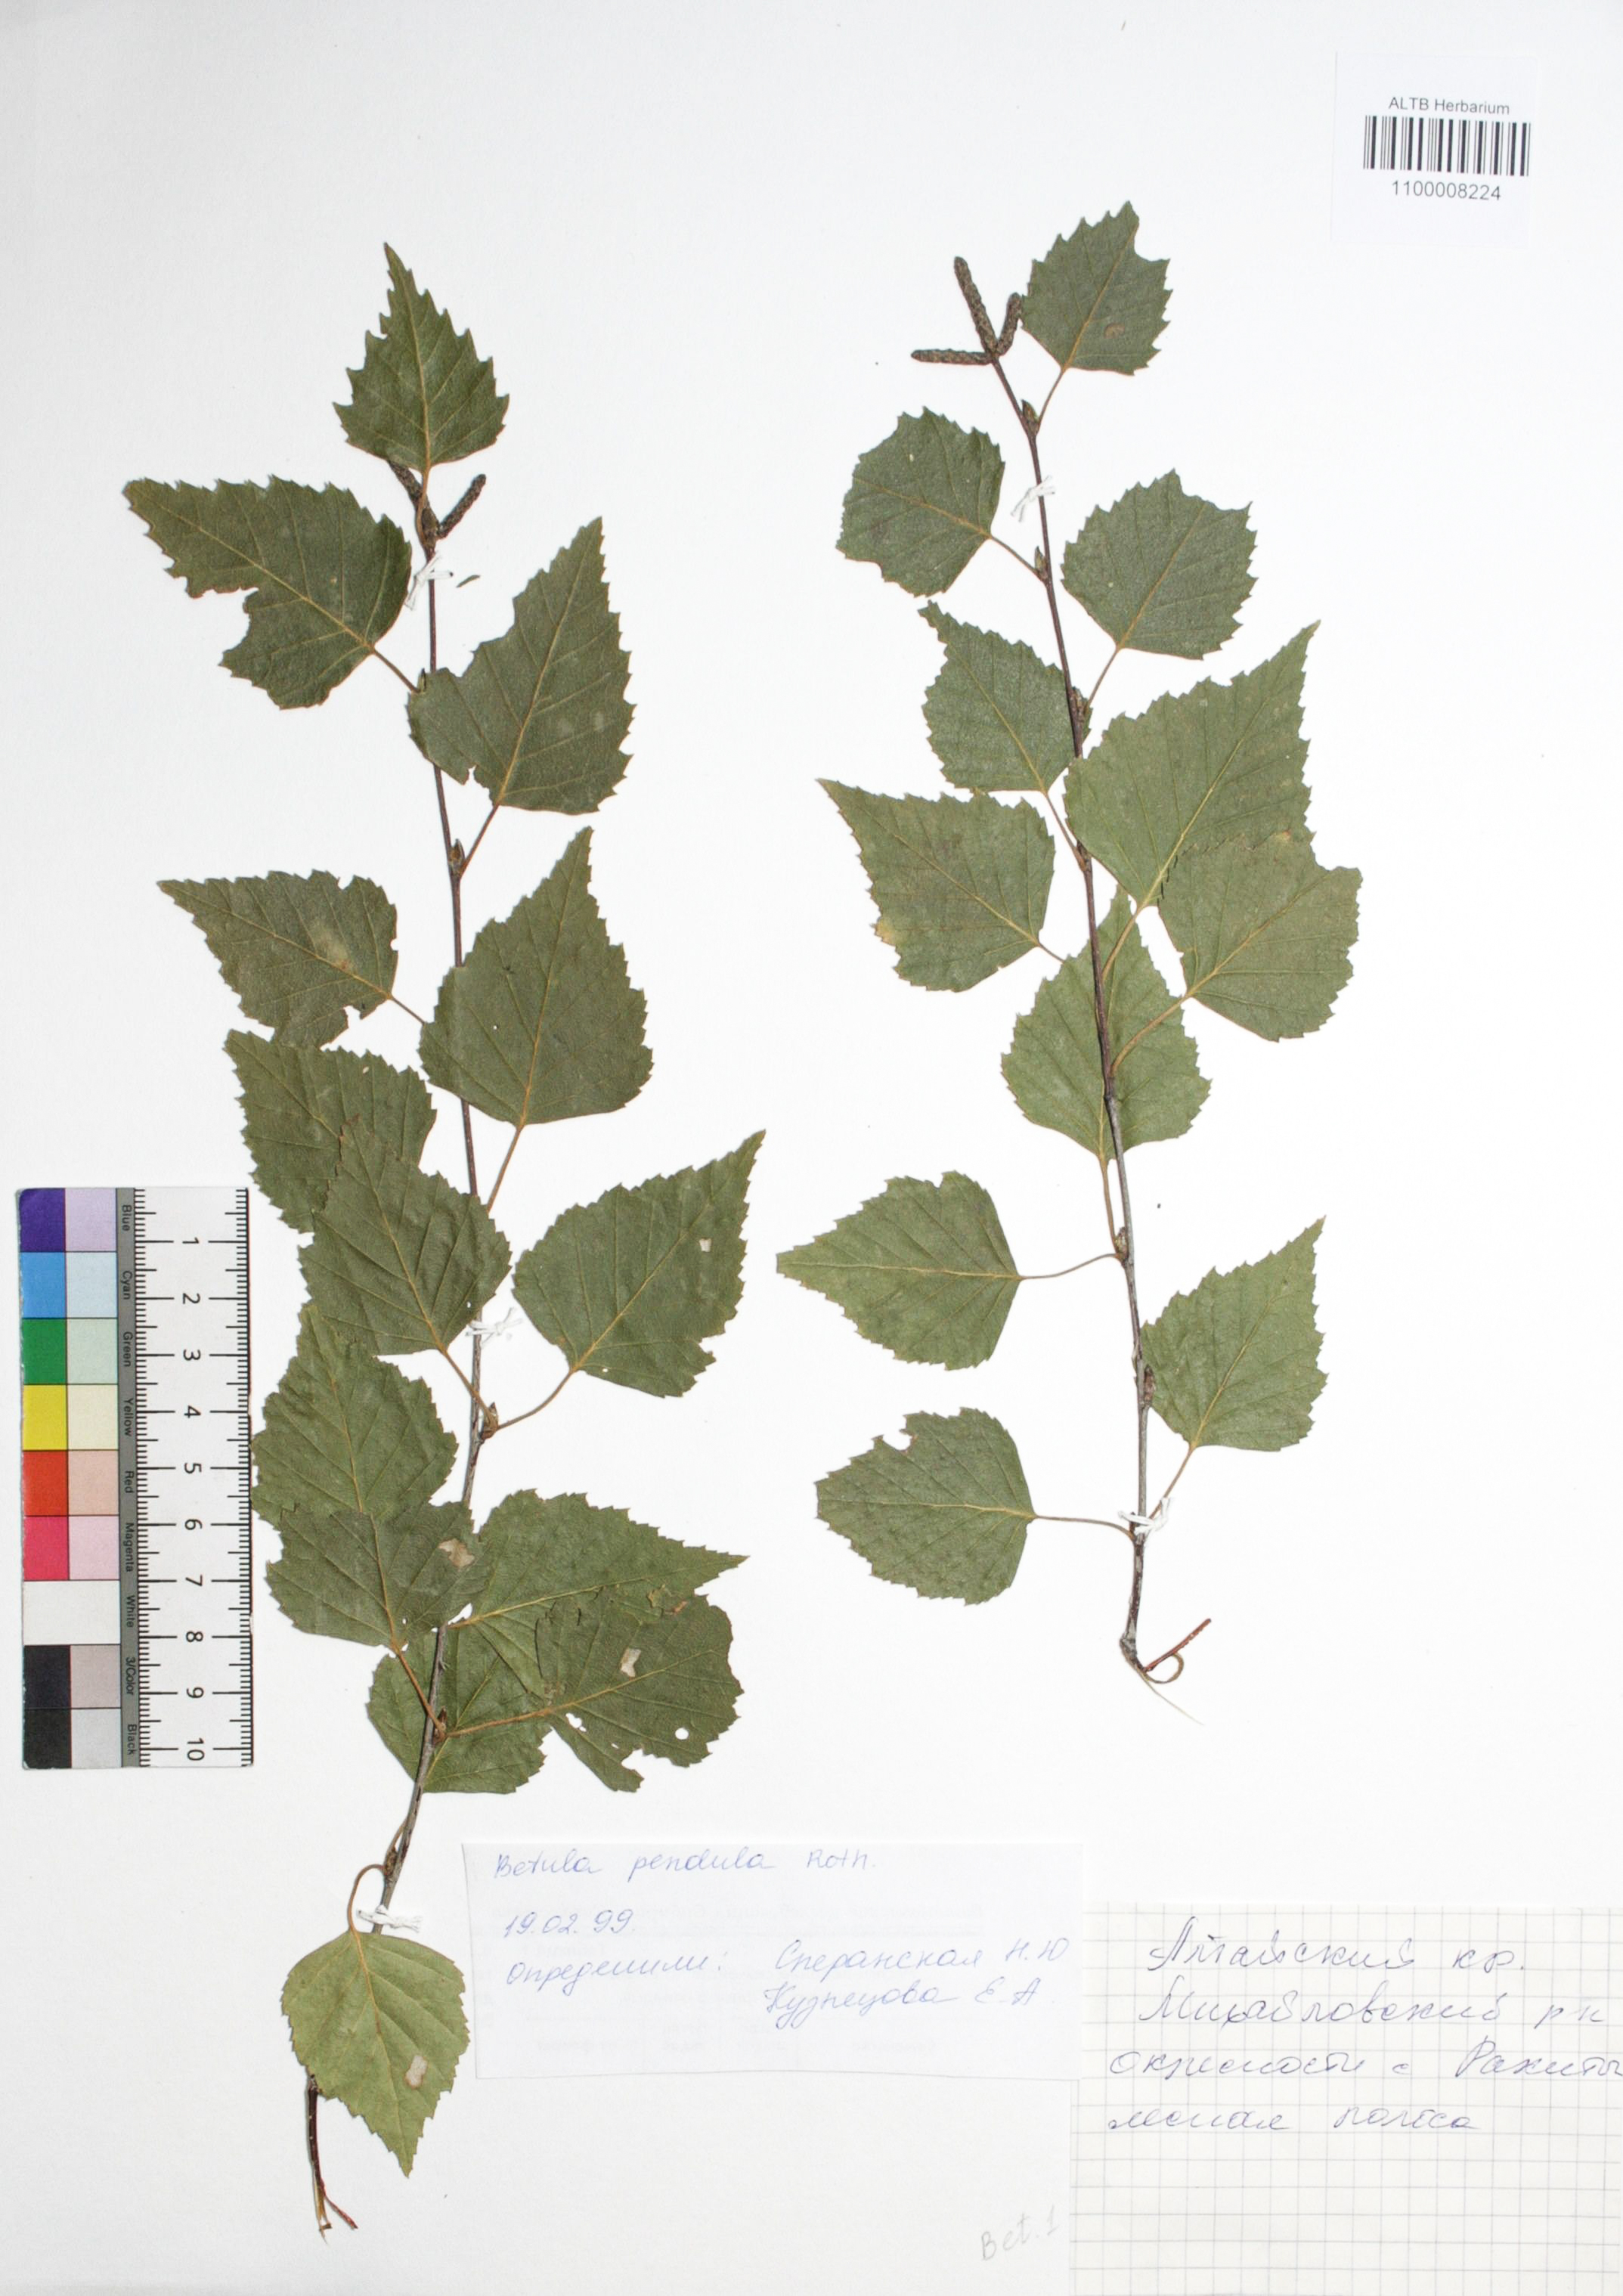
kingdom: Plantae
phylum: Tracheophyta
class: Magnoliopsida
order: Fagales
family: Betulaceae
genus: Betula
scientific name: Betula pendula
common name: Silver birch
